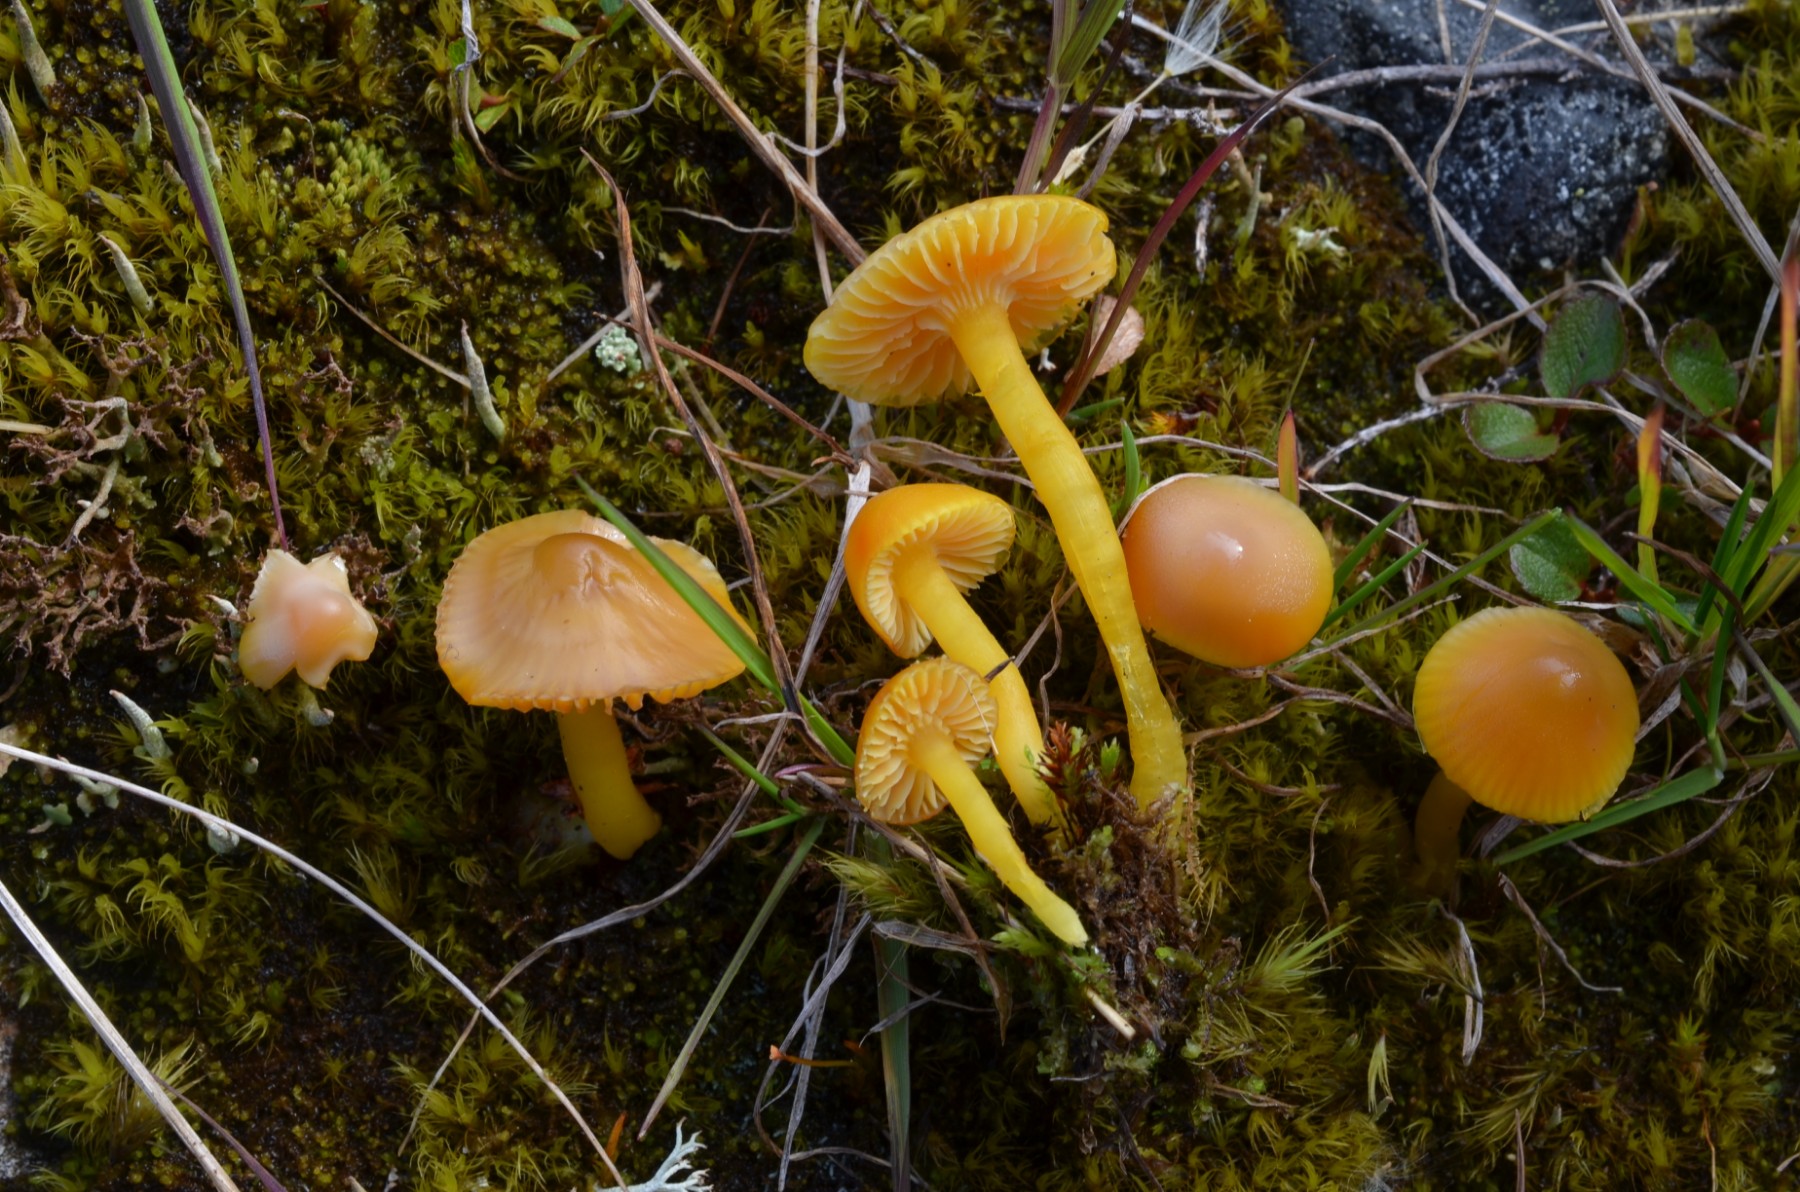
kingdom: Fungi
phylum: Basidiomycota
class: Agaricomycetes
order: Agaricales
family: Hygrophoraceae
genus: Hygrocybe
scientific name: Hygrocybe
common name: vokshat
